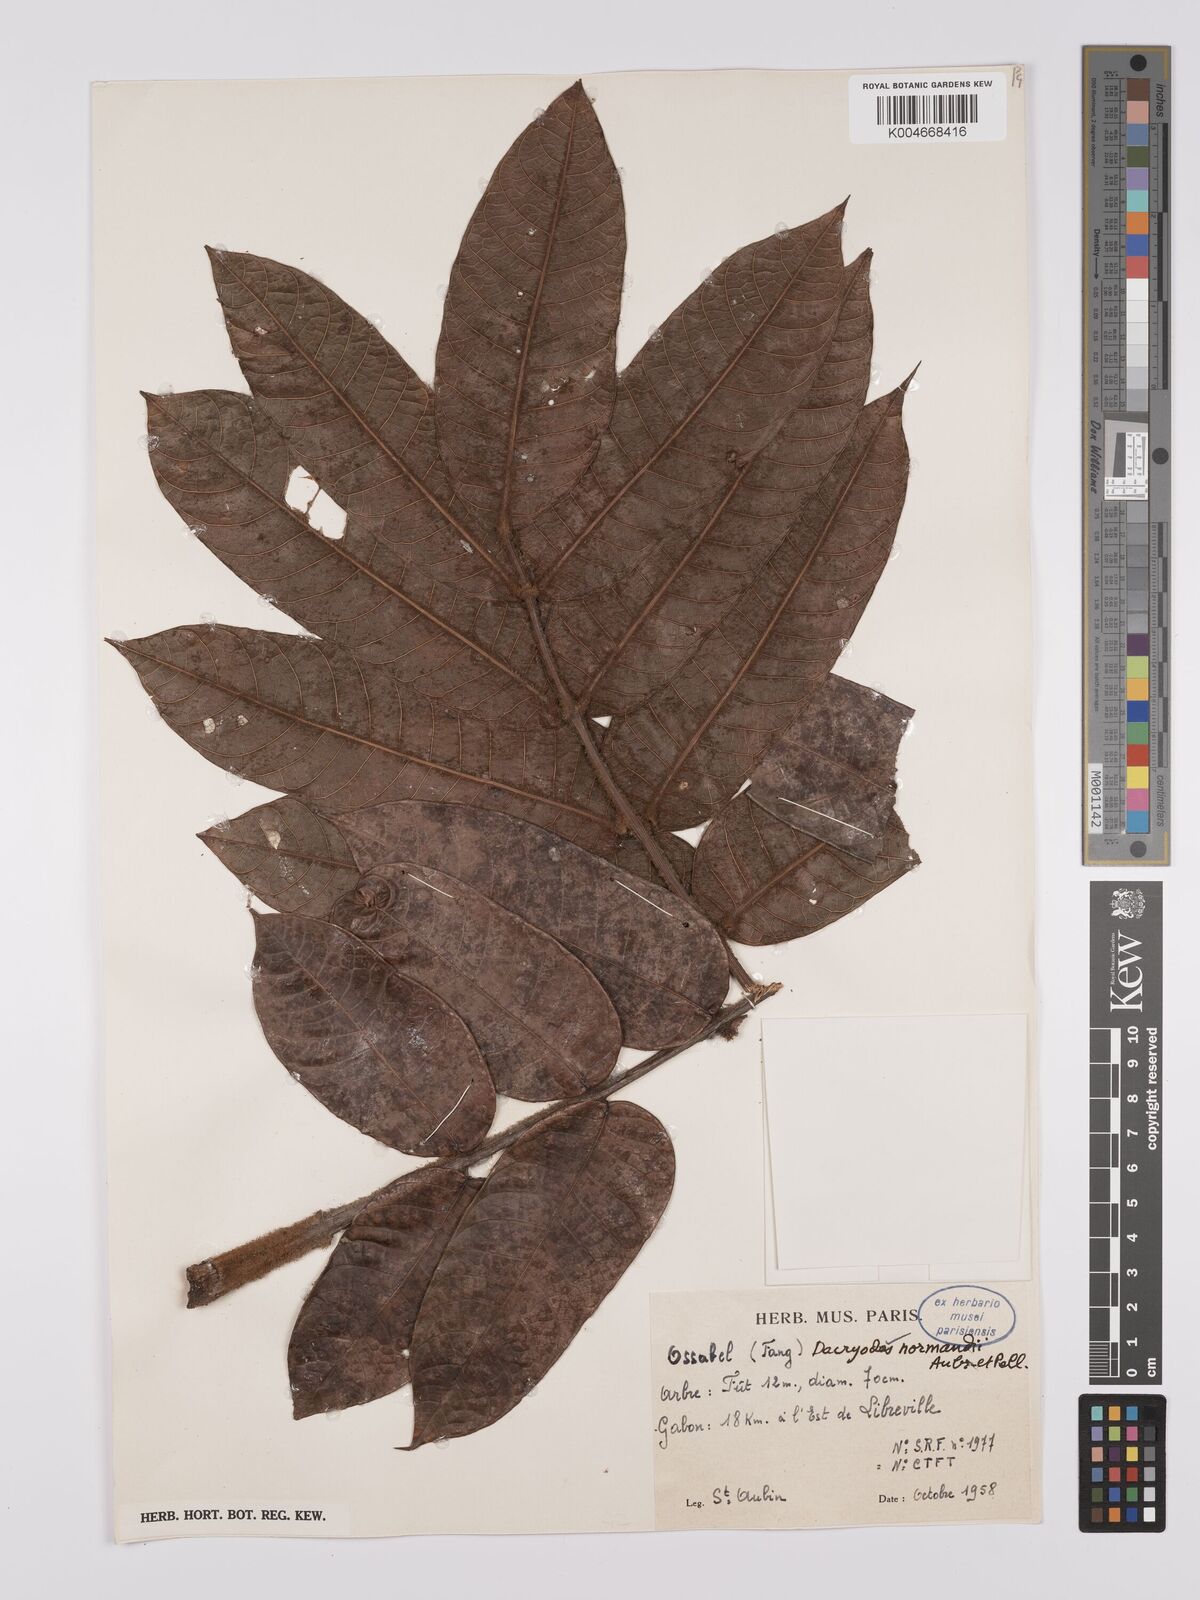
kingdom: Plantae
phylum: Tracheophyta
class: Magnoliopsida
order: Sapindales
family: Burseraceae
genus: Pachylobus
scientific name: Pachylobus normandii
